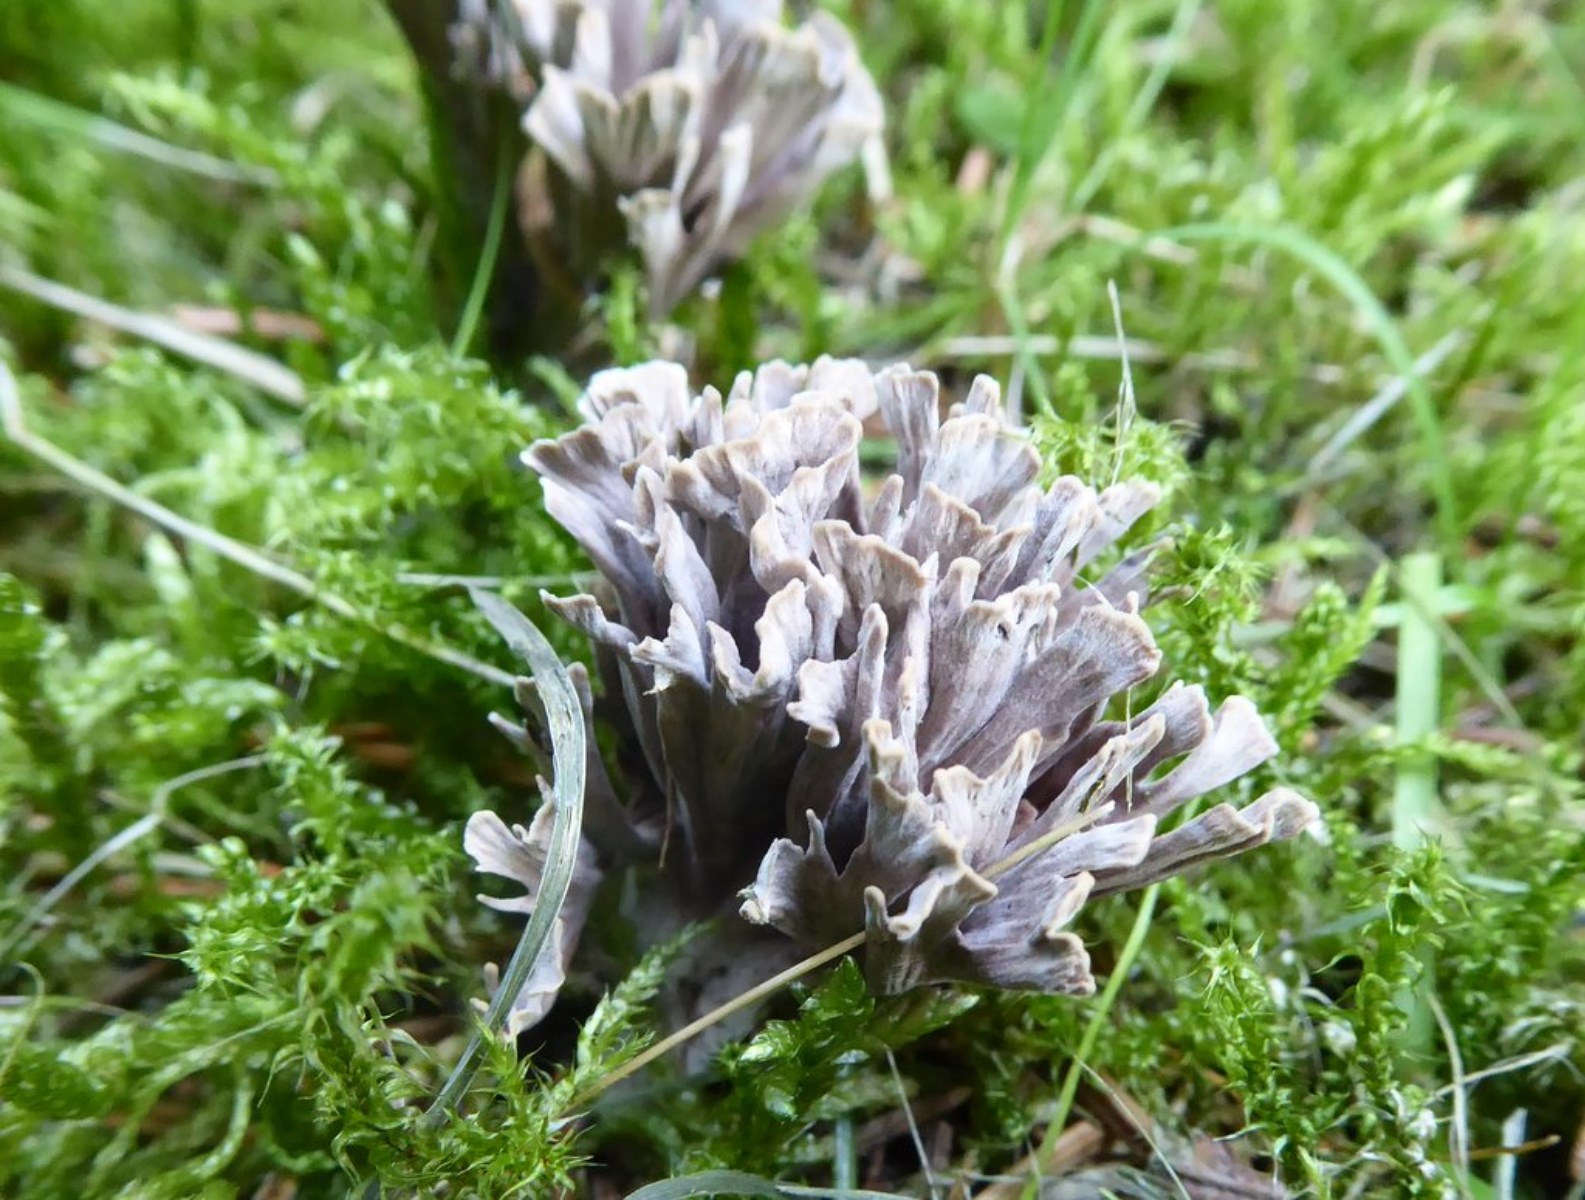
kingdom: Fungi
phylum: Basidiomycota
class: Agaricomycetes
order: Thelephorales
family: Thelephoraceae
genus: Thelephora
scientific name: Thelephora palmata
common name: grenet frynsesvamp
